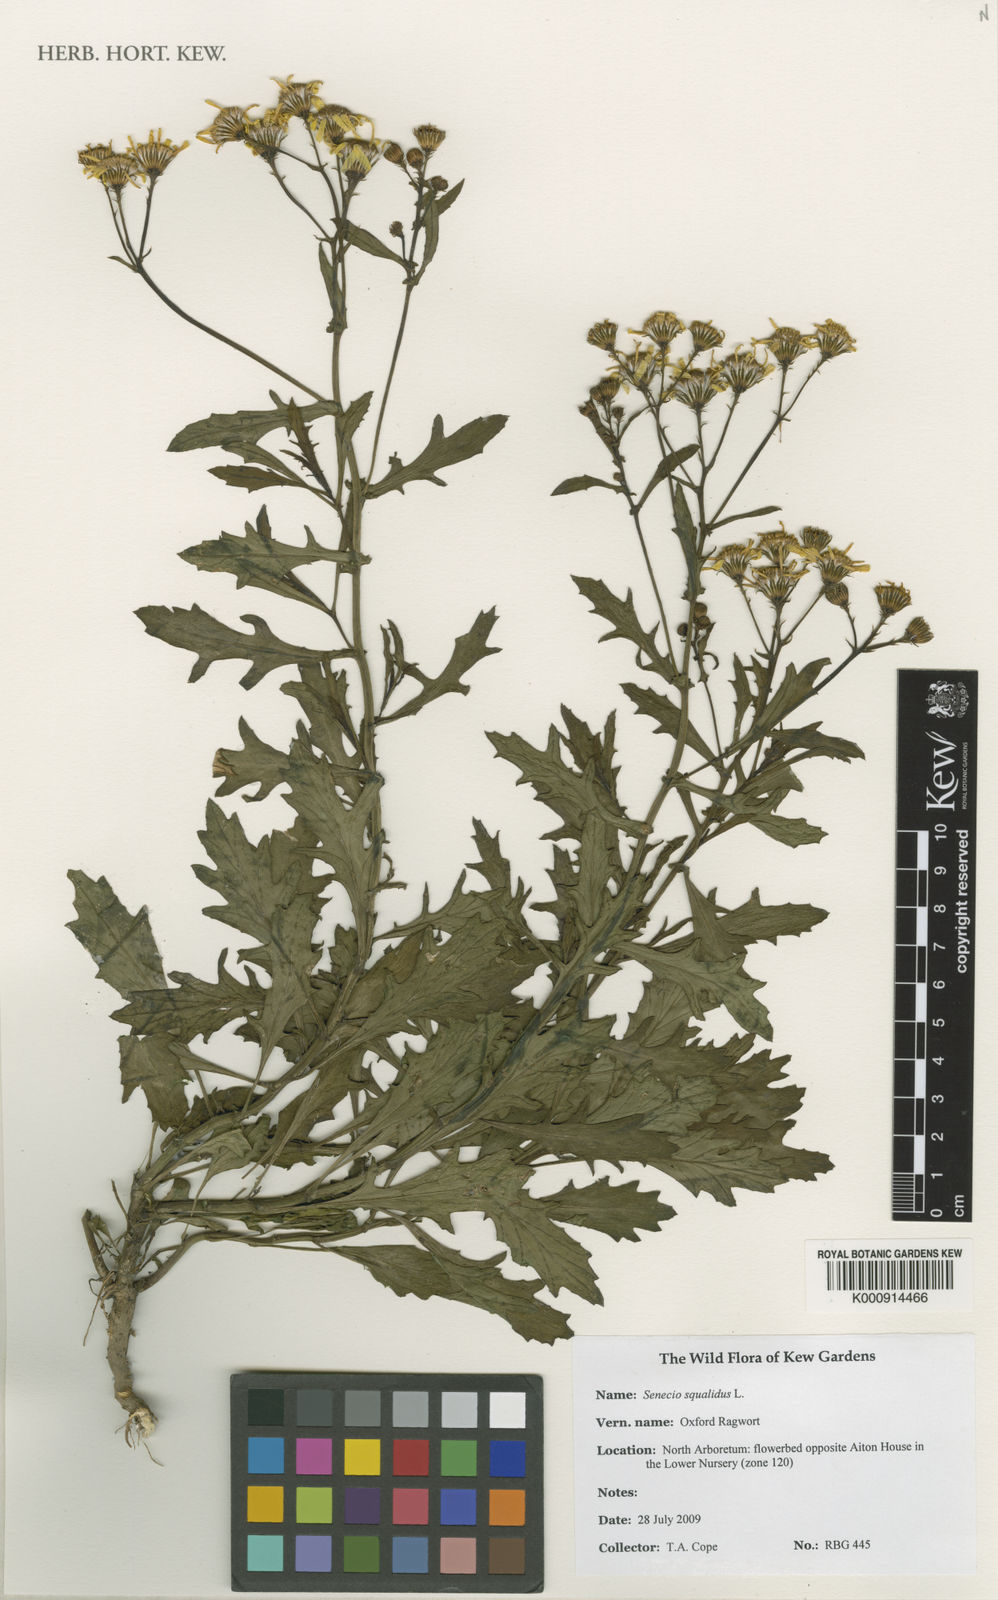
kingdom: Plantae
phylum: Tracheophyta
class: Magnoliopsida
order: Asterales
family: Asteraceae
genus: Senecio
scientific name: Senecio squalidus
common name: Oxford ragwort
